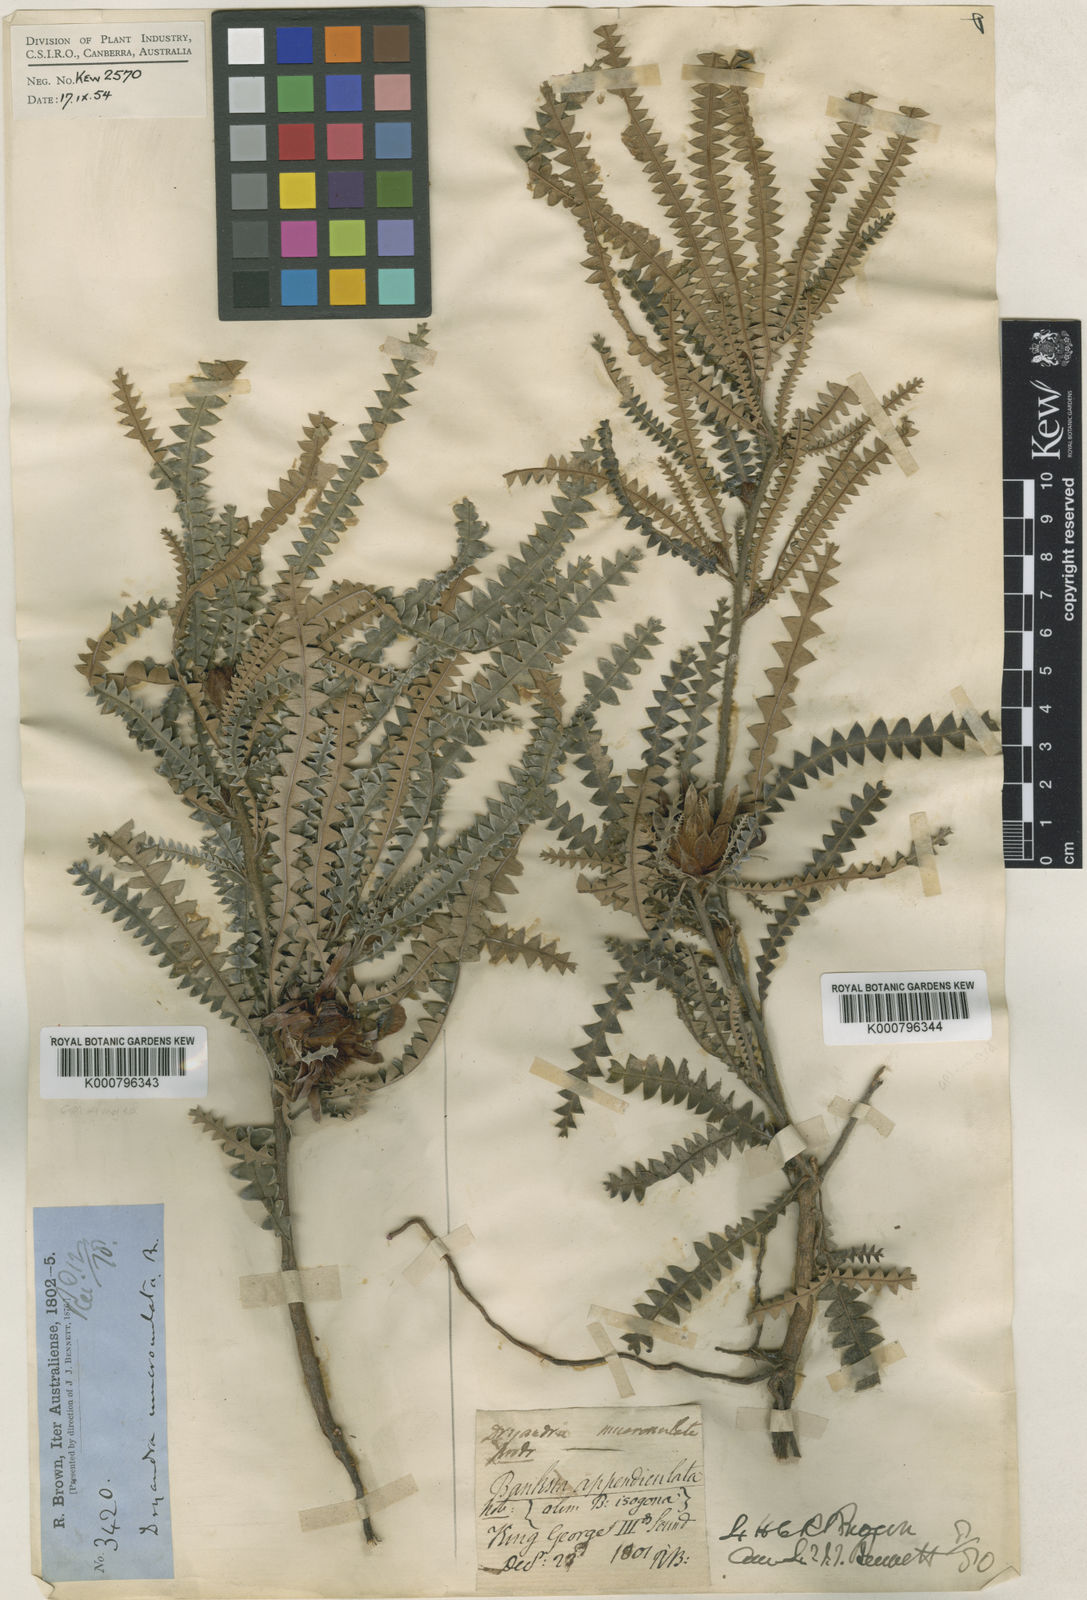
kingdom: Plantae
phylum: Tracheophyta
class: Magnoliopsida
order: Proteales
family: Proteaceae
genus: Banksia
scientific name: Banksia mucronulata
